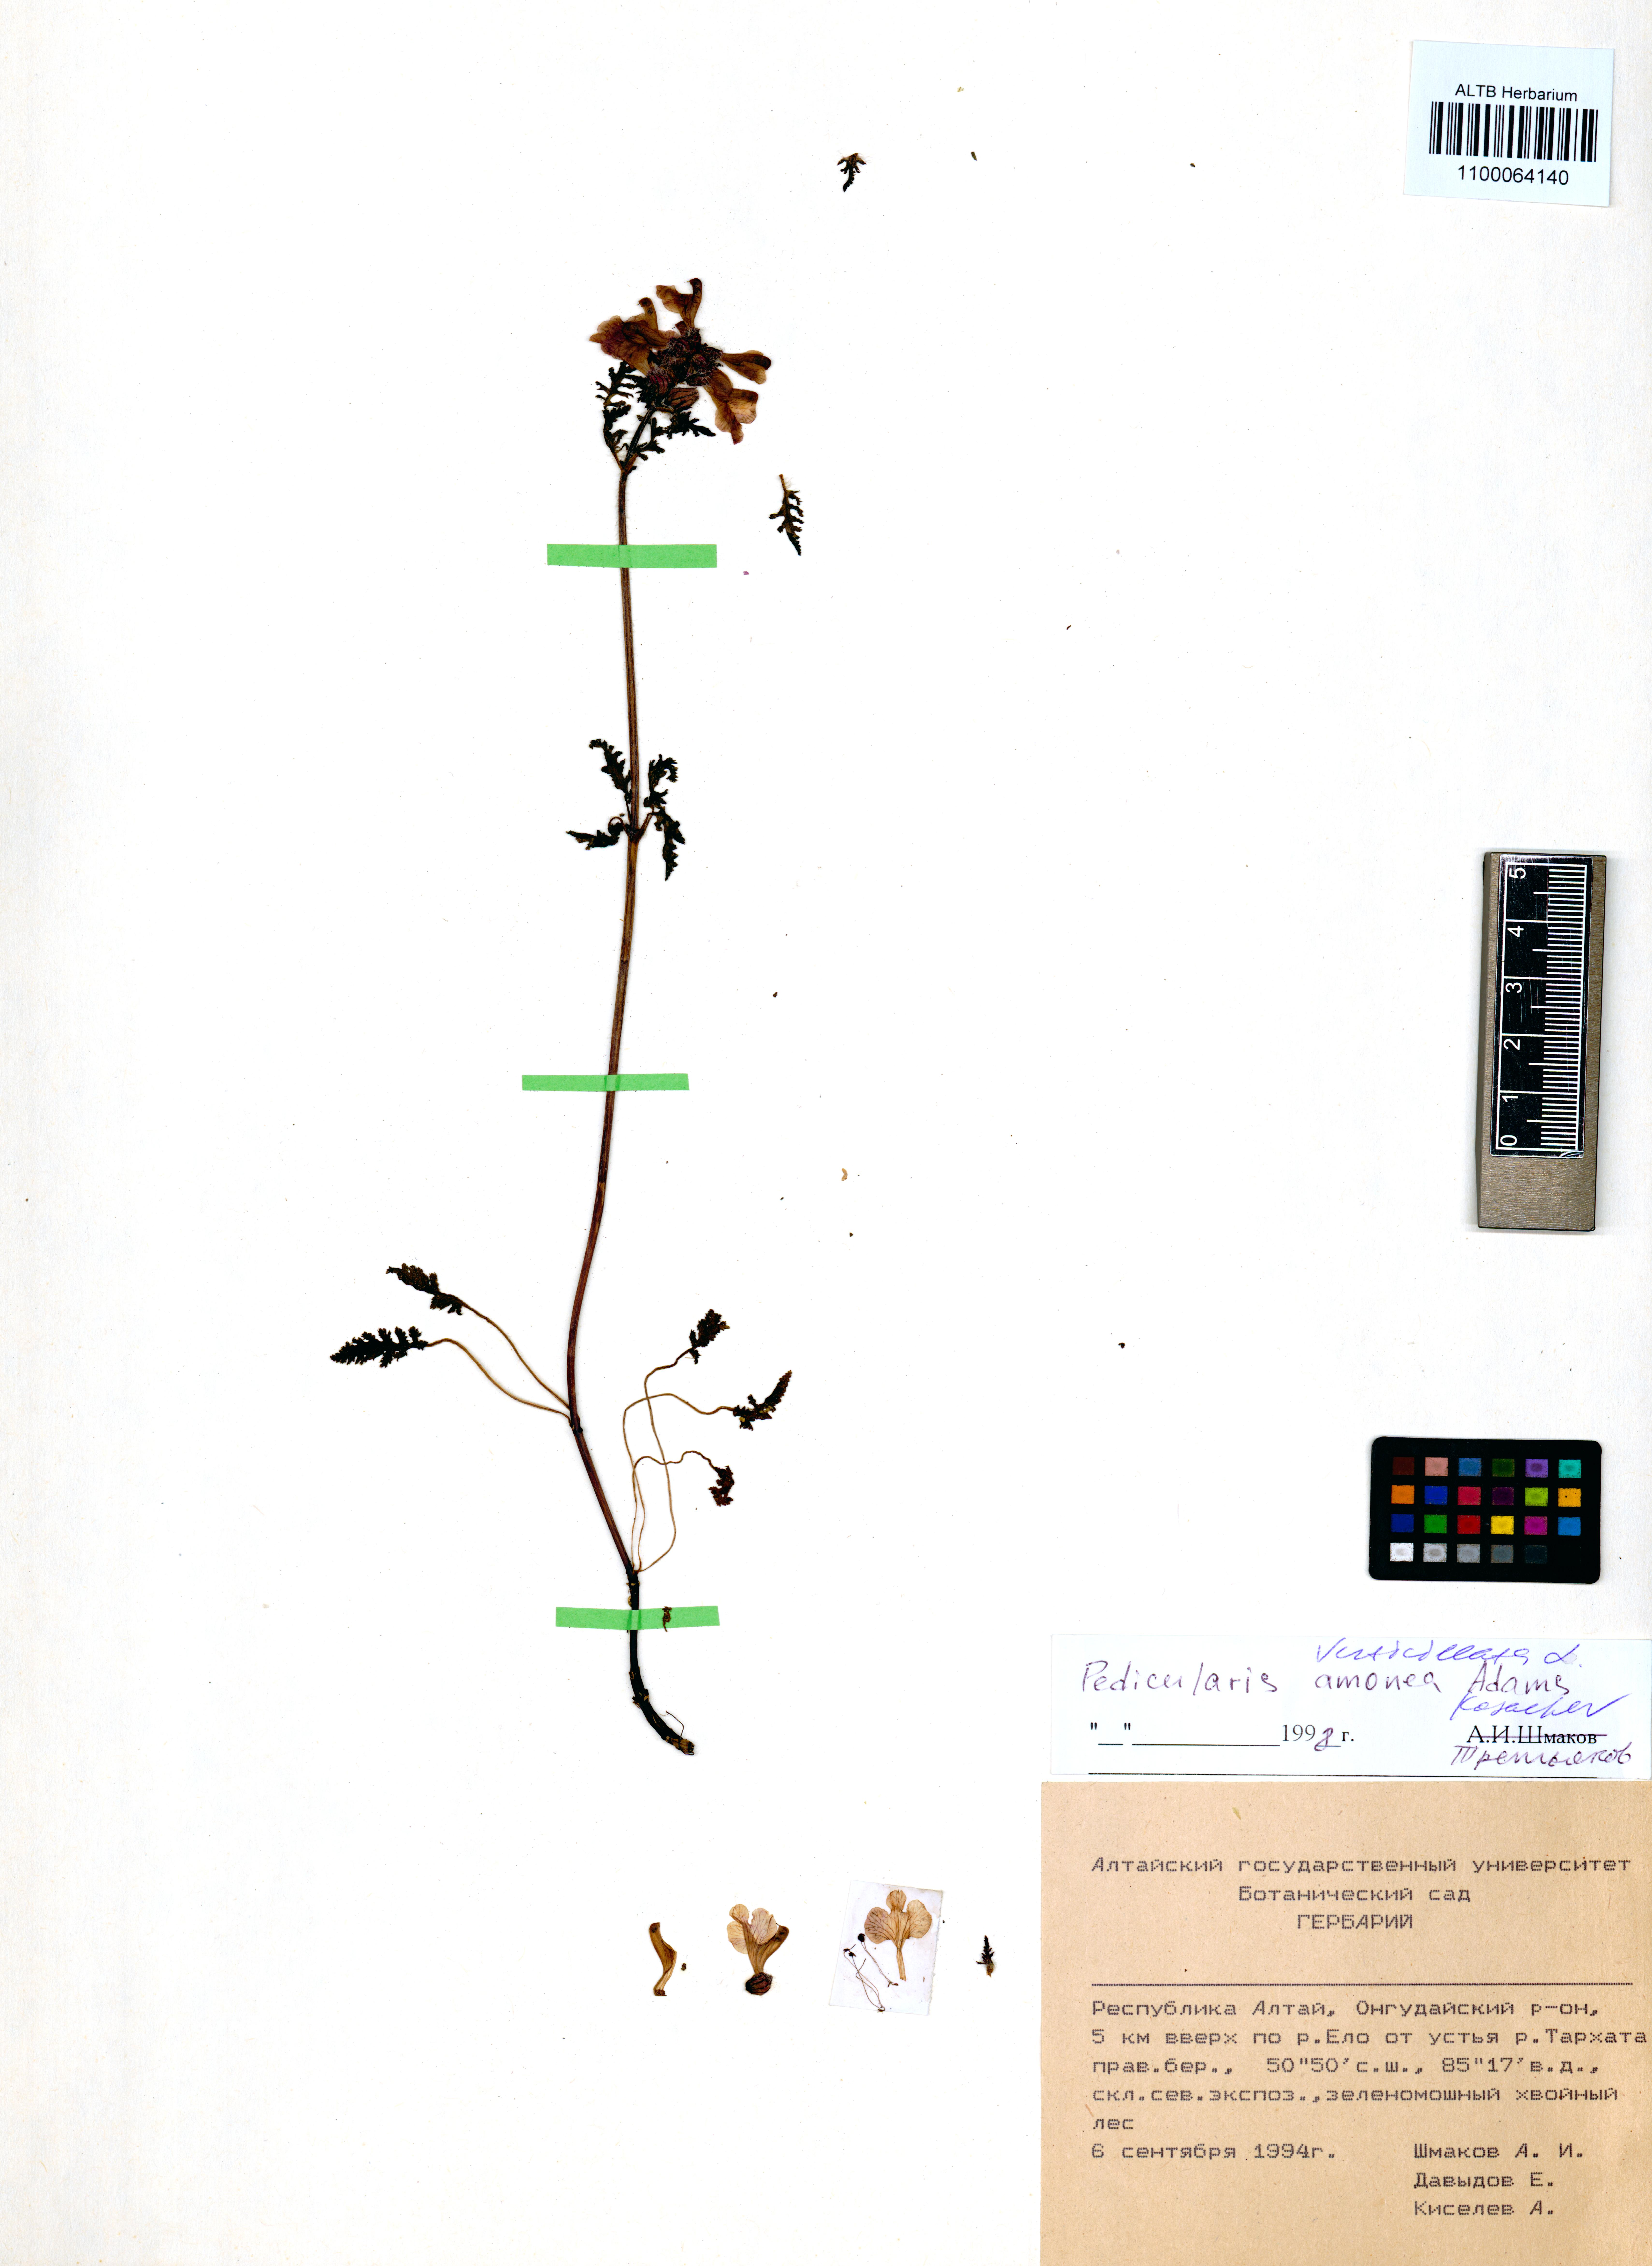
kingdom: Plantae
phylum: Tracheophyta
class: Magnoliopsida
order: Lamiales
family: Orobanchaceae
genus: Pedicularis
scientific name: Pedicularis verticillata
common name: Whorled lousewort
